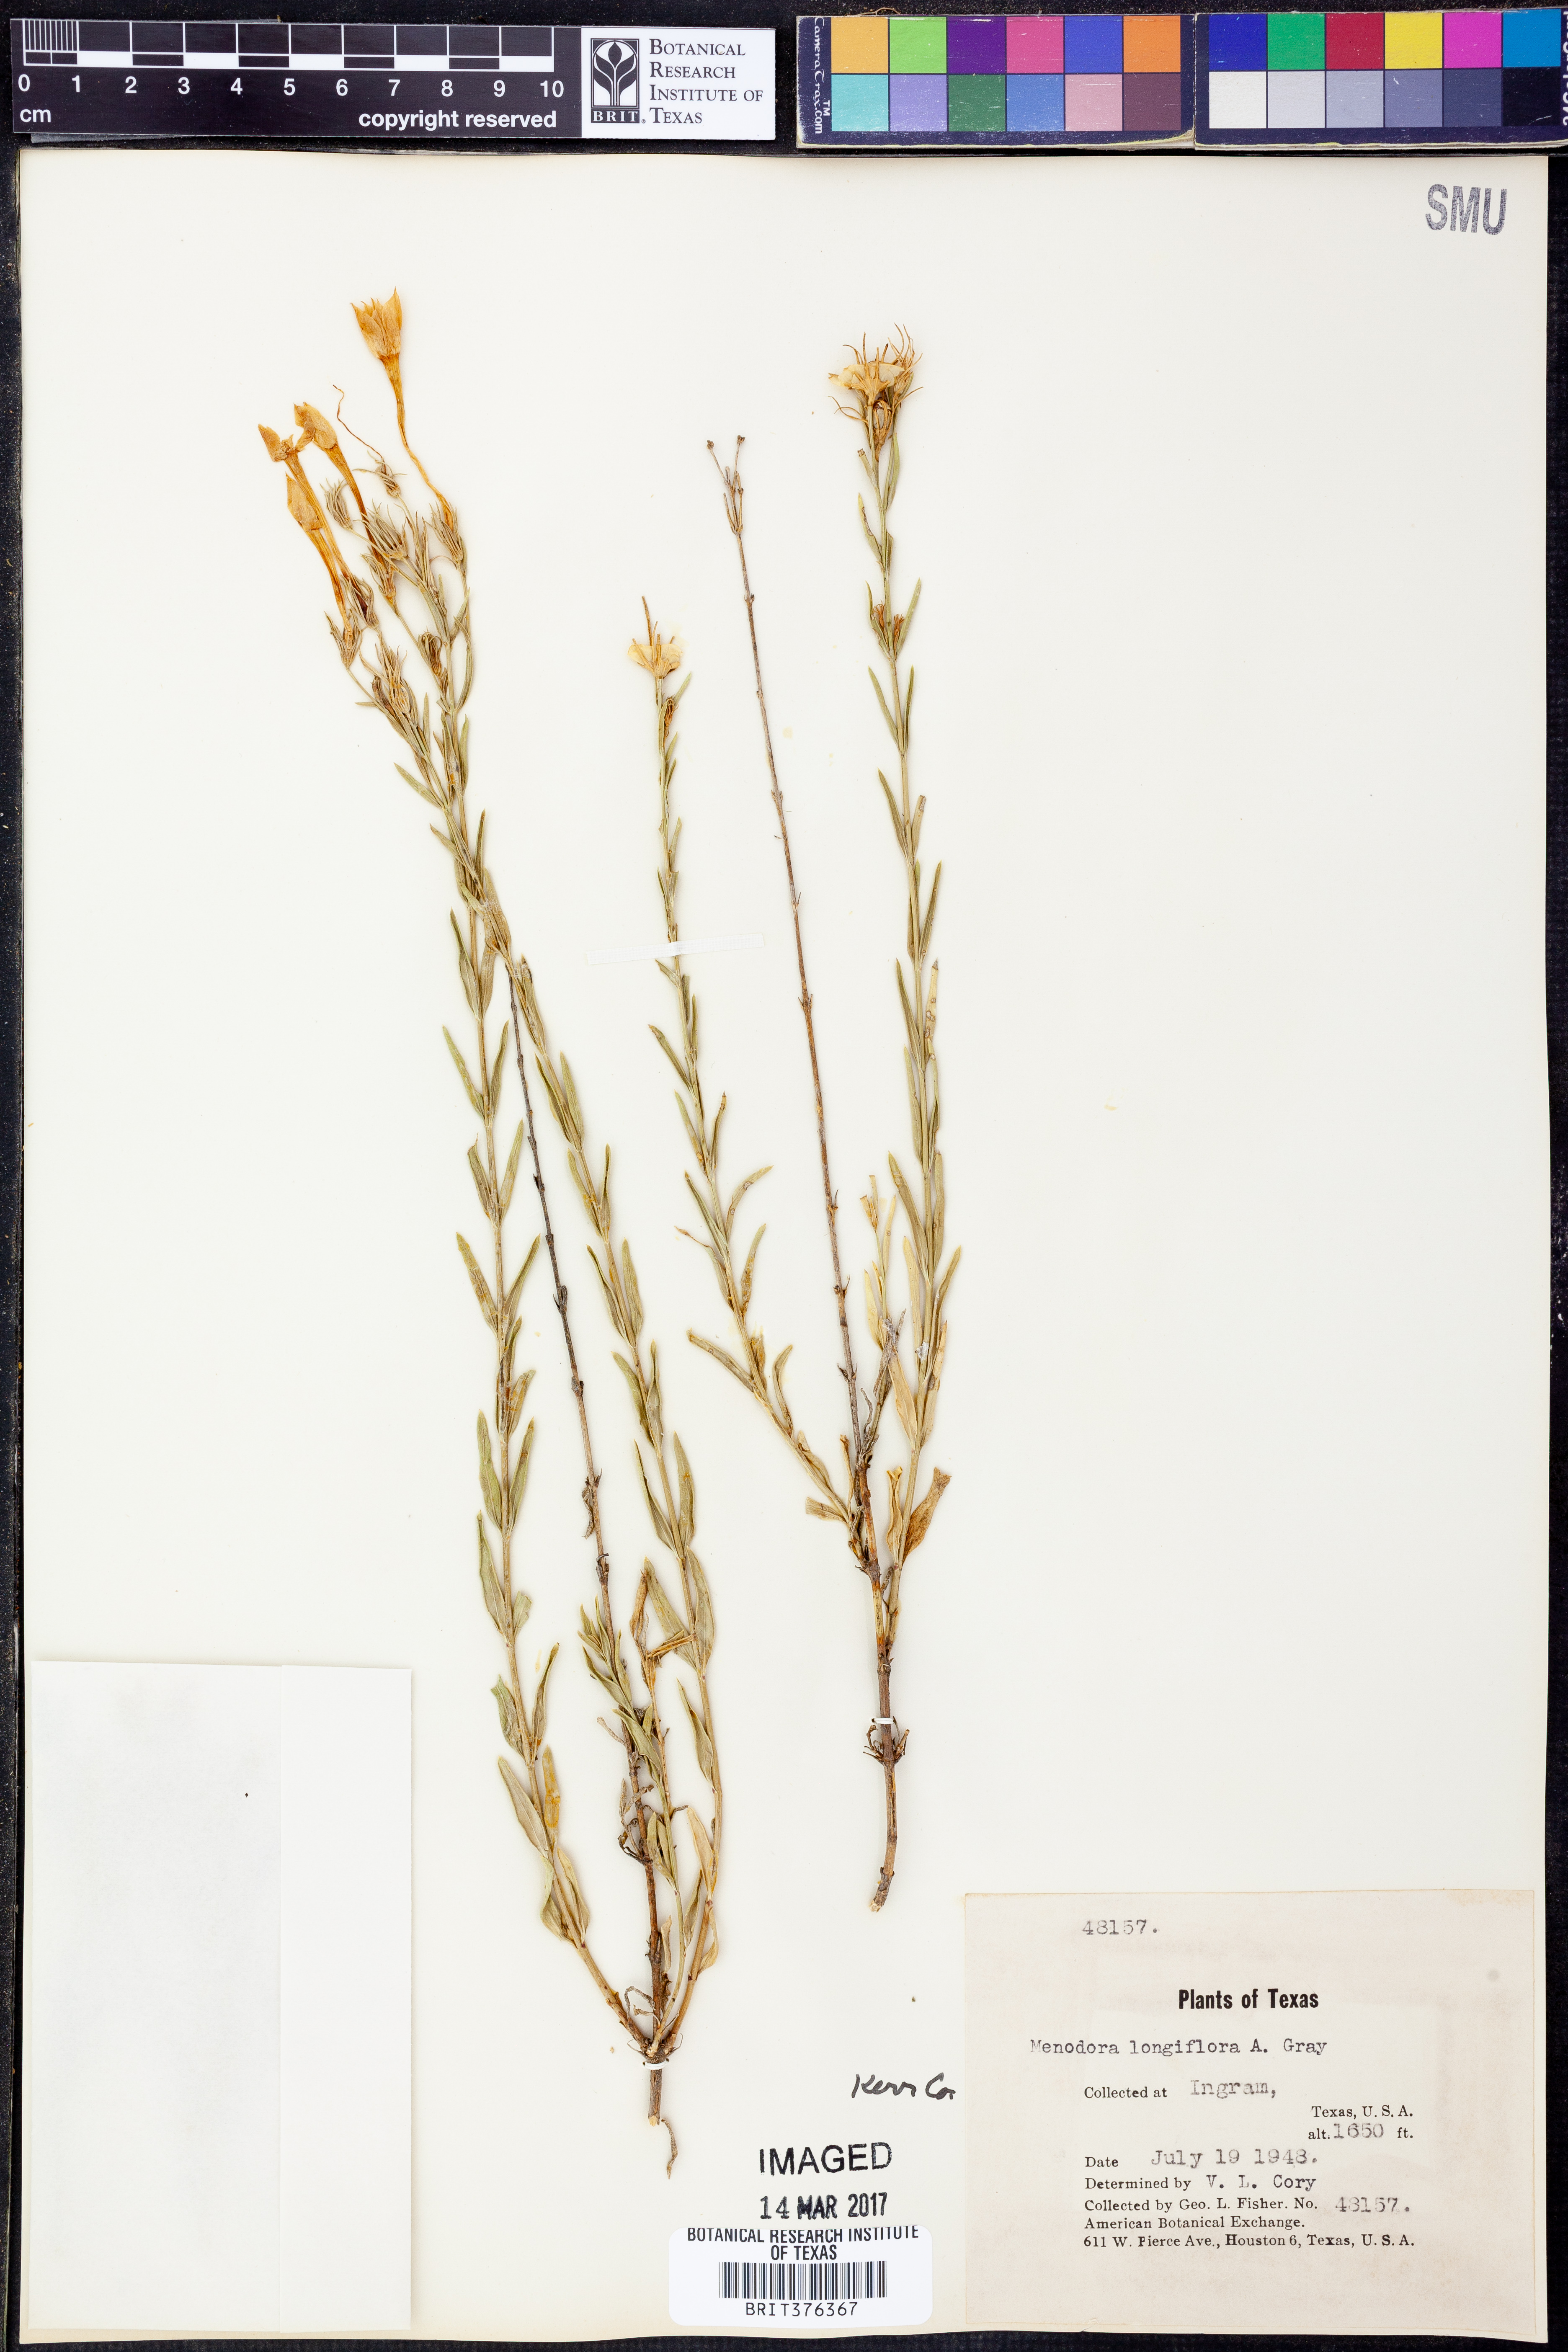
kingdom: Plantae
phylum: Tracheophyta
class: Magnoliopsida
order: Lamiales
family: Oleaceae
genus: Menodora
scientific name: Menodora longiflora
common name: Showy menodora
